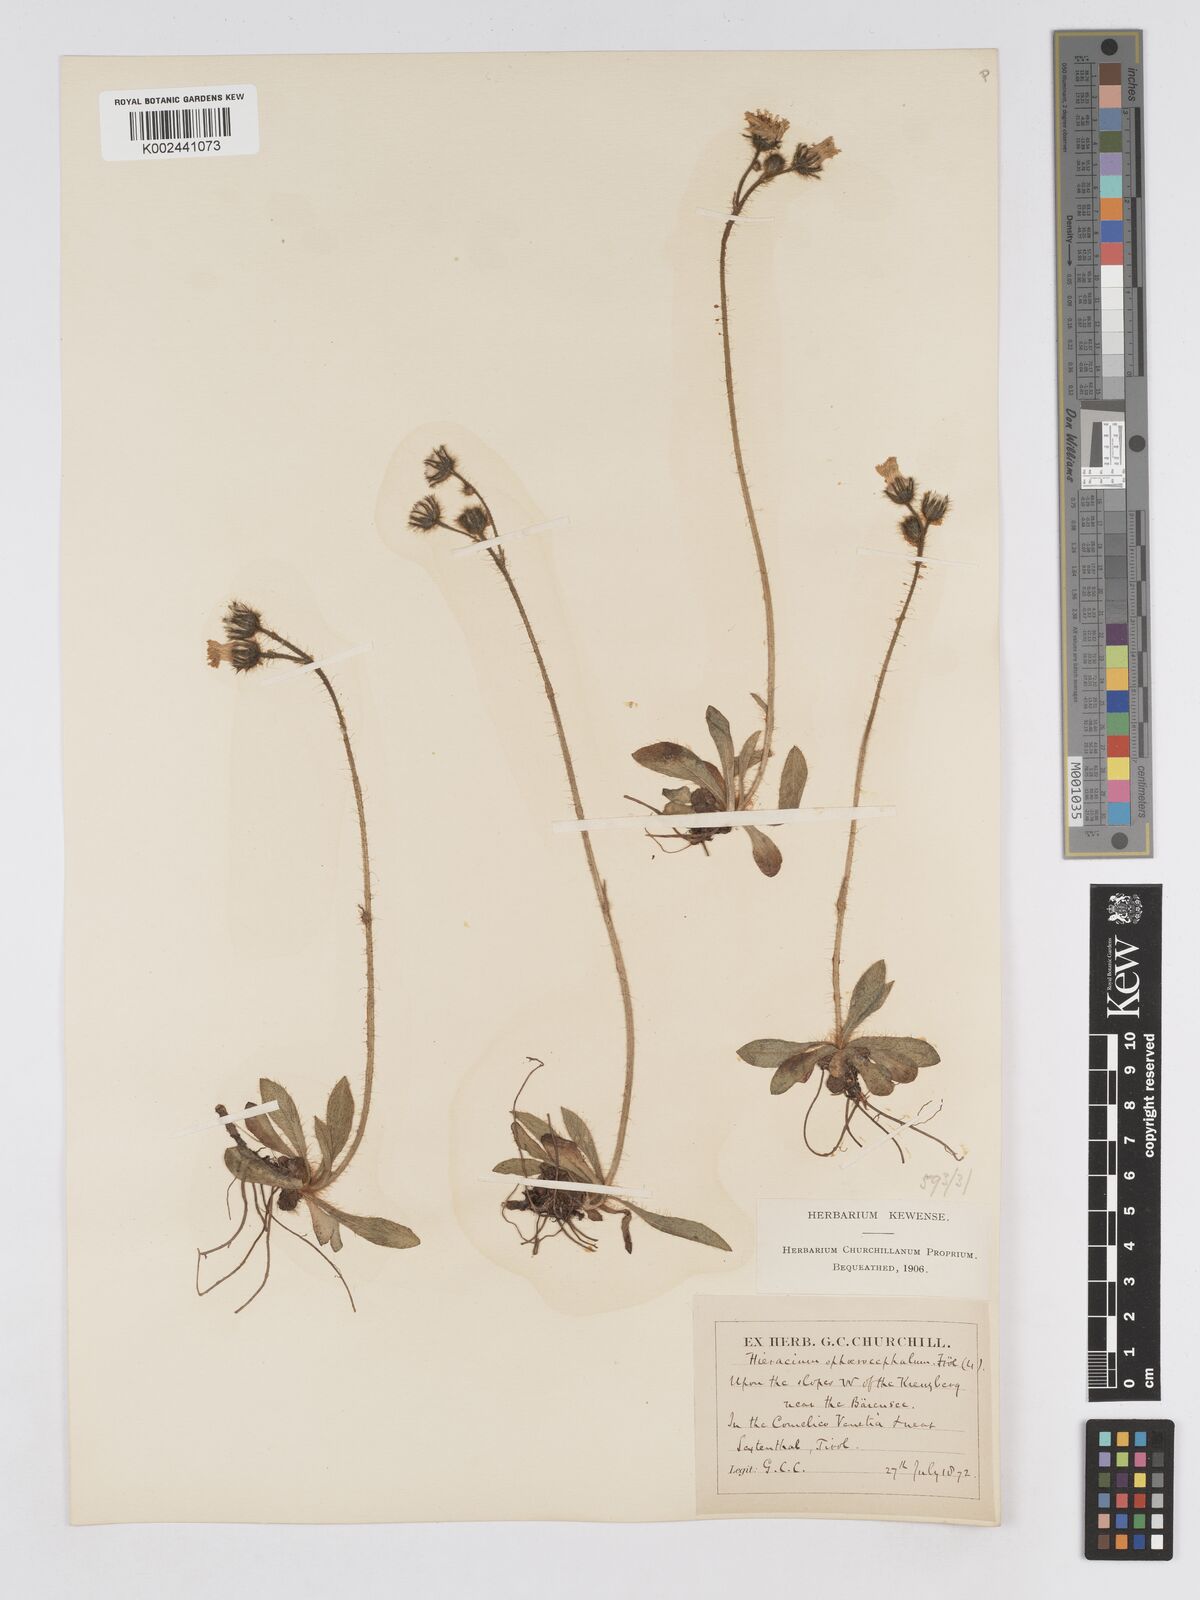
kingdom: Plantae
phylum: Tracheophyta
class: Magnoliopsida
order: Asterales
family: Asteraceae
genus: Pilosella
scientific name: Pilosella sphaerocephala
